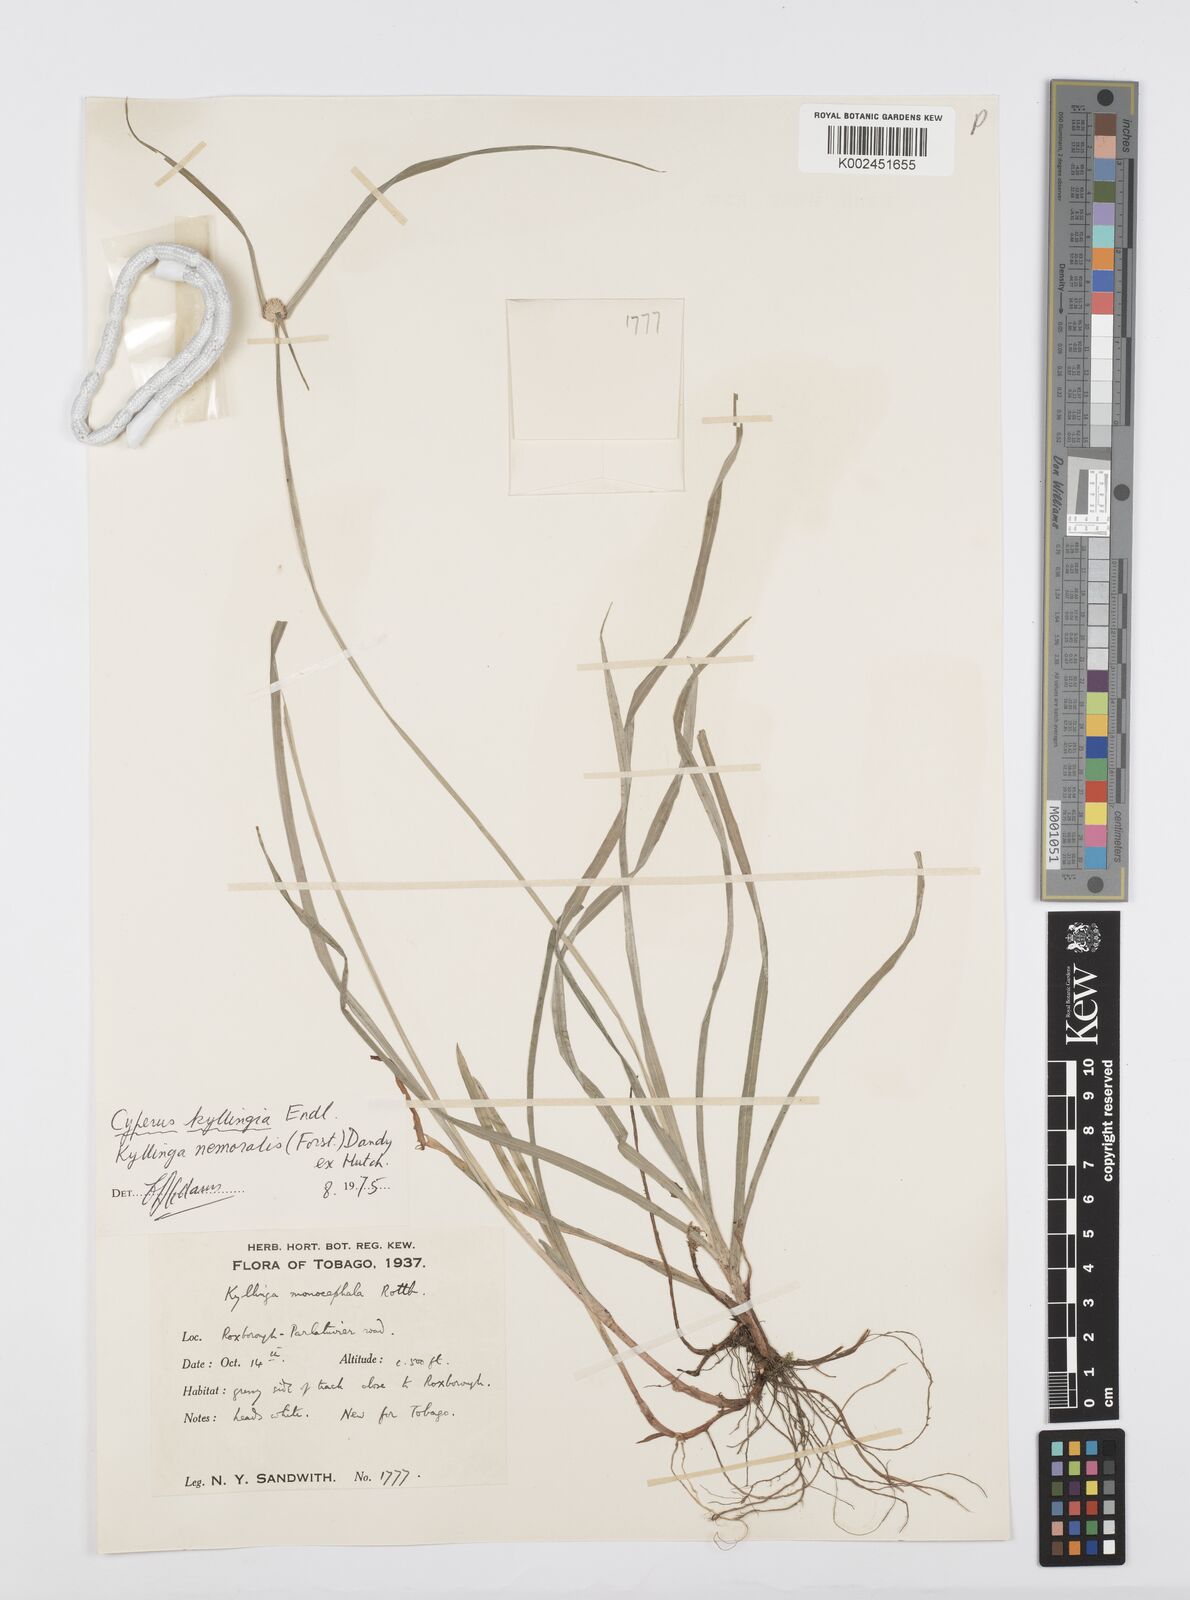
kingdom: Plantae
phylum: Tracheophyta
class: Liliopsida
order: Poales
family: Cyperaceae
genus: Cyperus
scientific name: Cyperus
